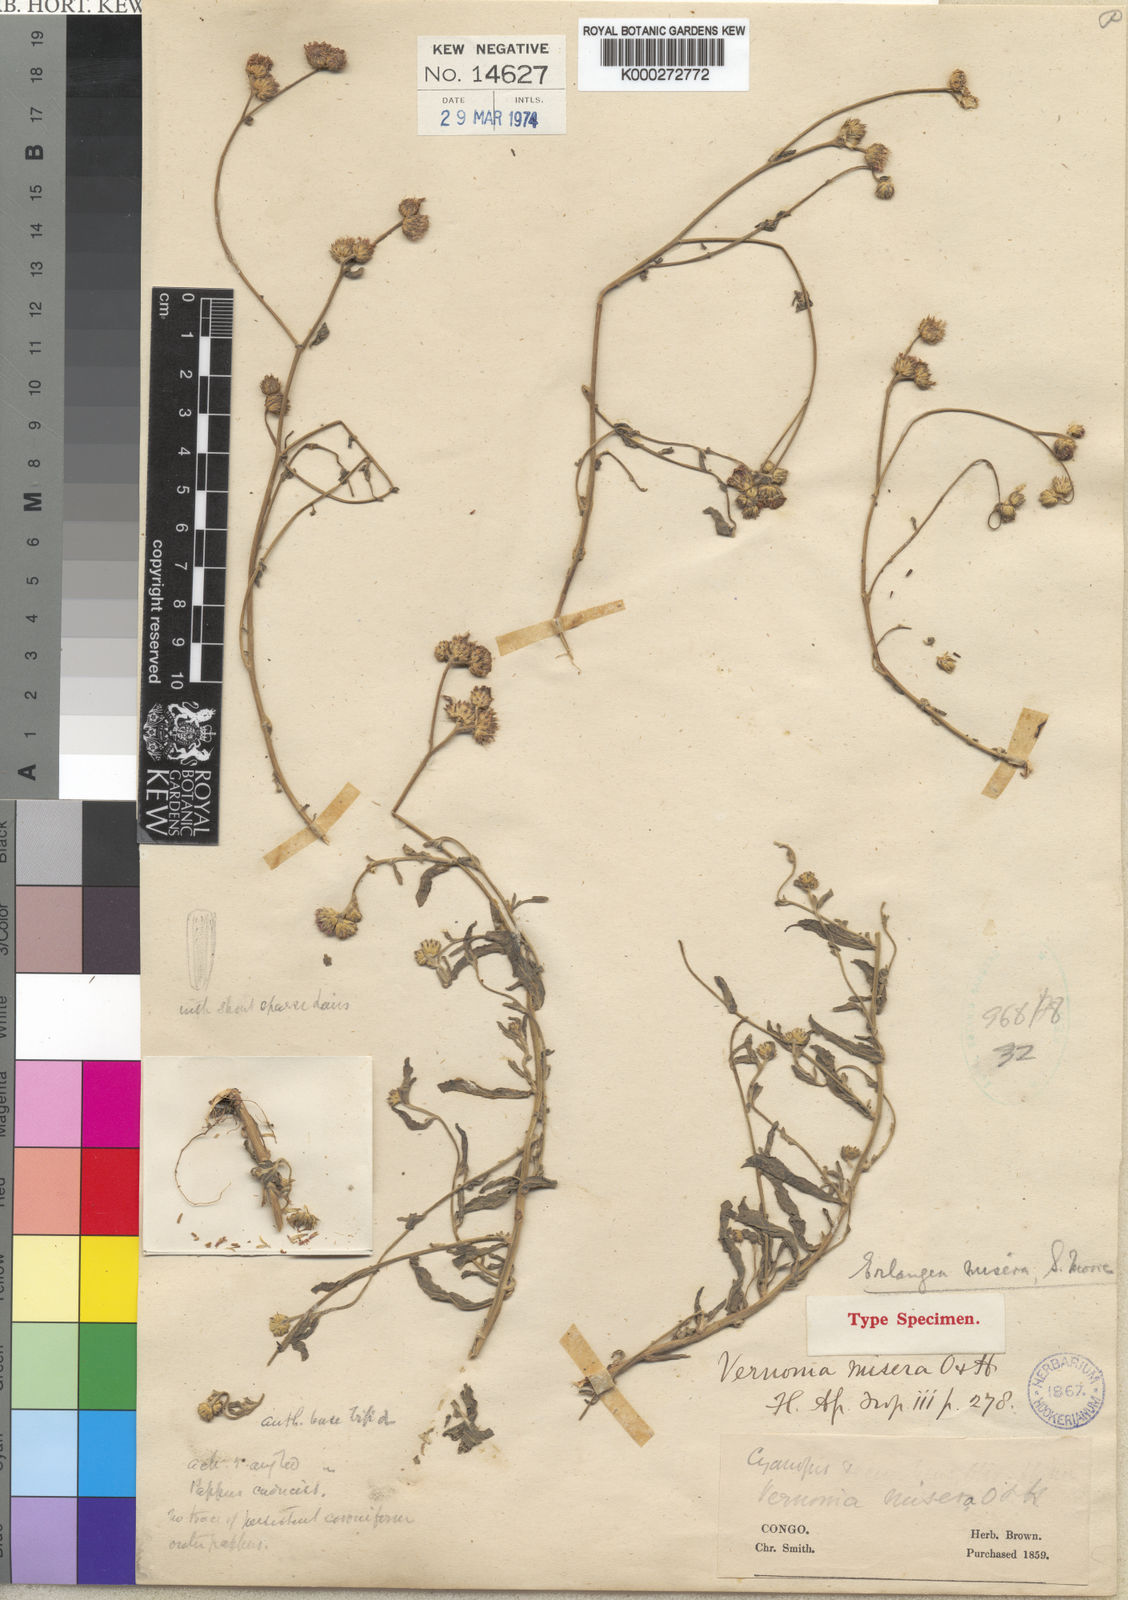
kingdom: Plantae
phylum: Tracheophyta
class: Magnoliopsida
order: Asterales
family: Asteraceae
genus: Erlangea
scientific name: Erlangea misera
